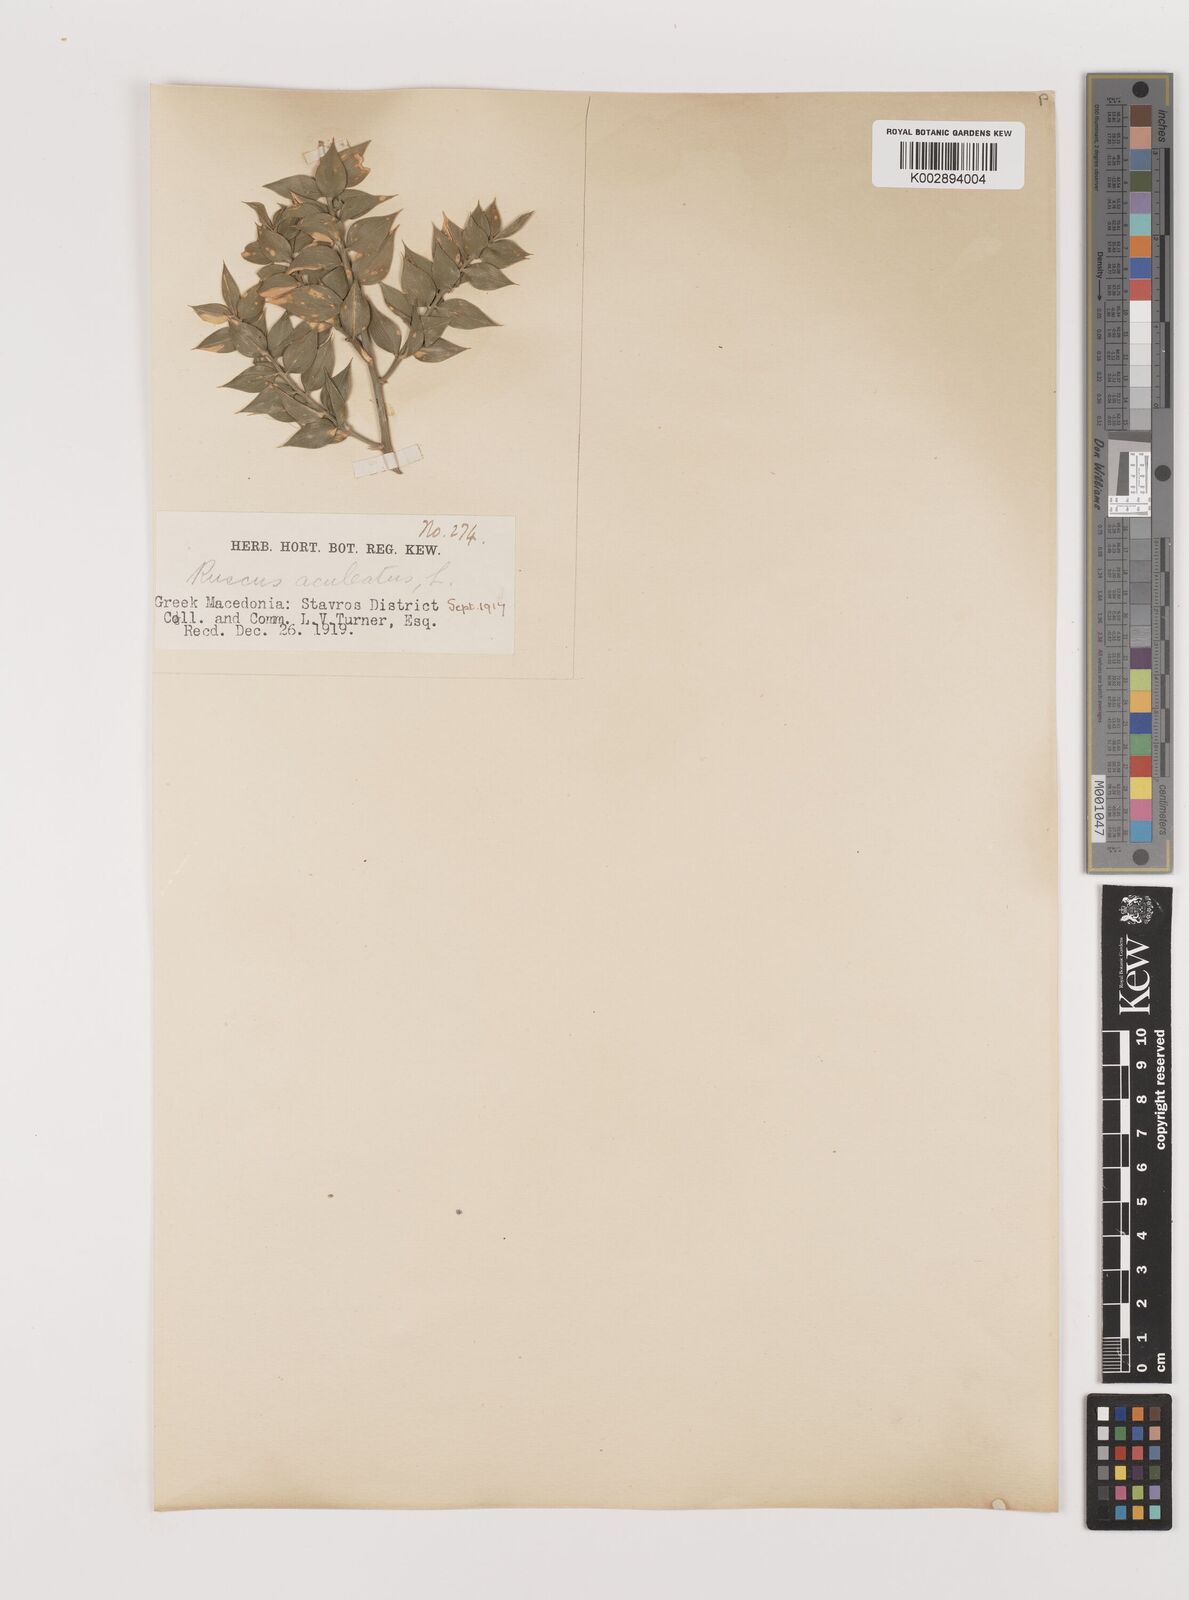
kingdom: Plantae
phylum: Tracheophyta
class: Liliopsida
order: Asparagales
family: Asparagaceae
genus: Ruscus
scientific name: Ruscus aculeatus
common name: Butcher's-broom
